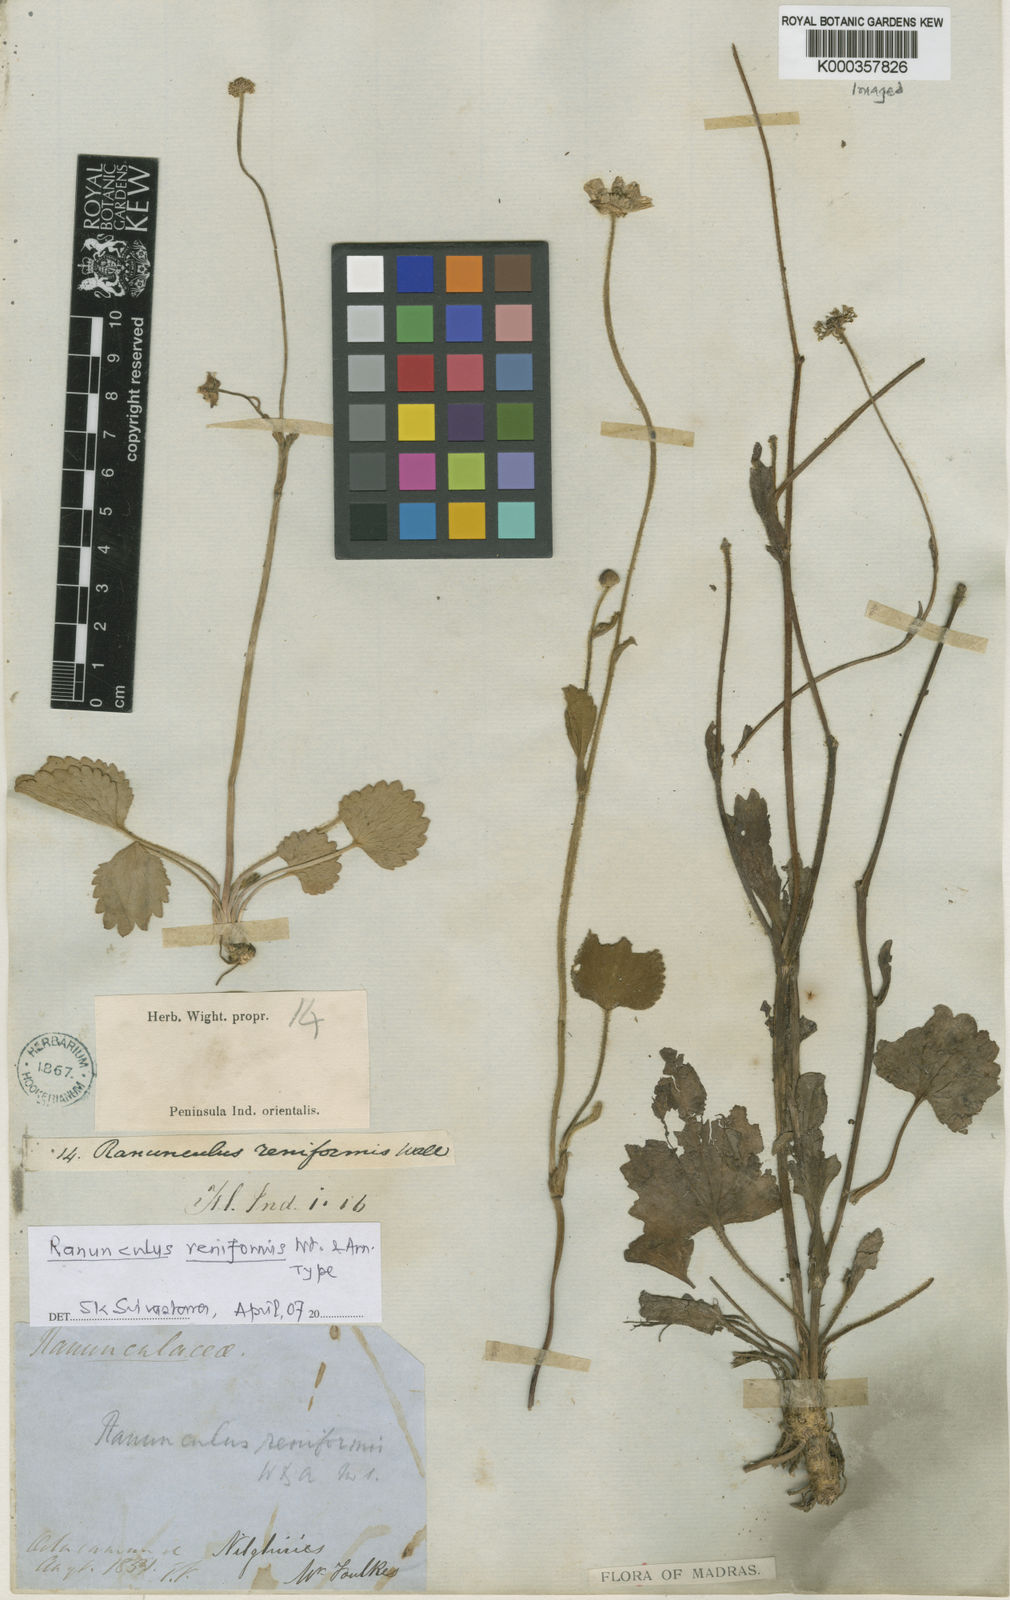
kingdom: Plantae
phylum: Tracheophyta
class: Magnoliopsida
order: Ranunculales
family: Ranunculaceae
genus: Ranunculus
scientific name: Ranunculus reniformis
